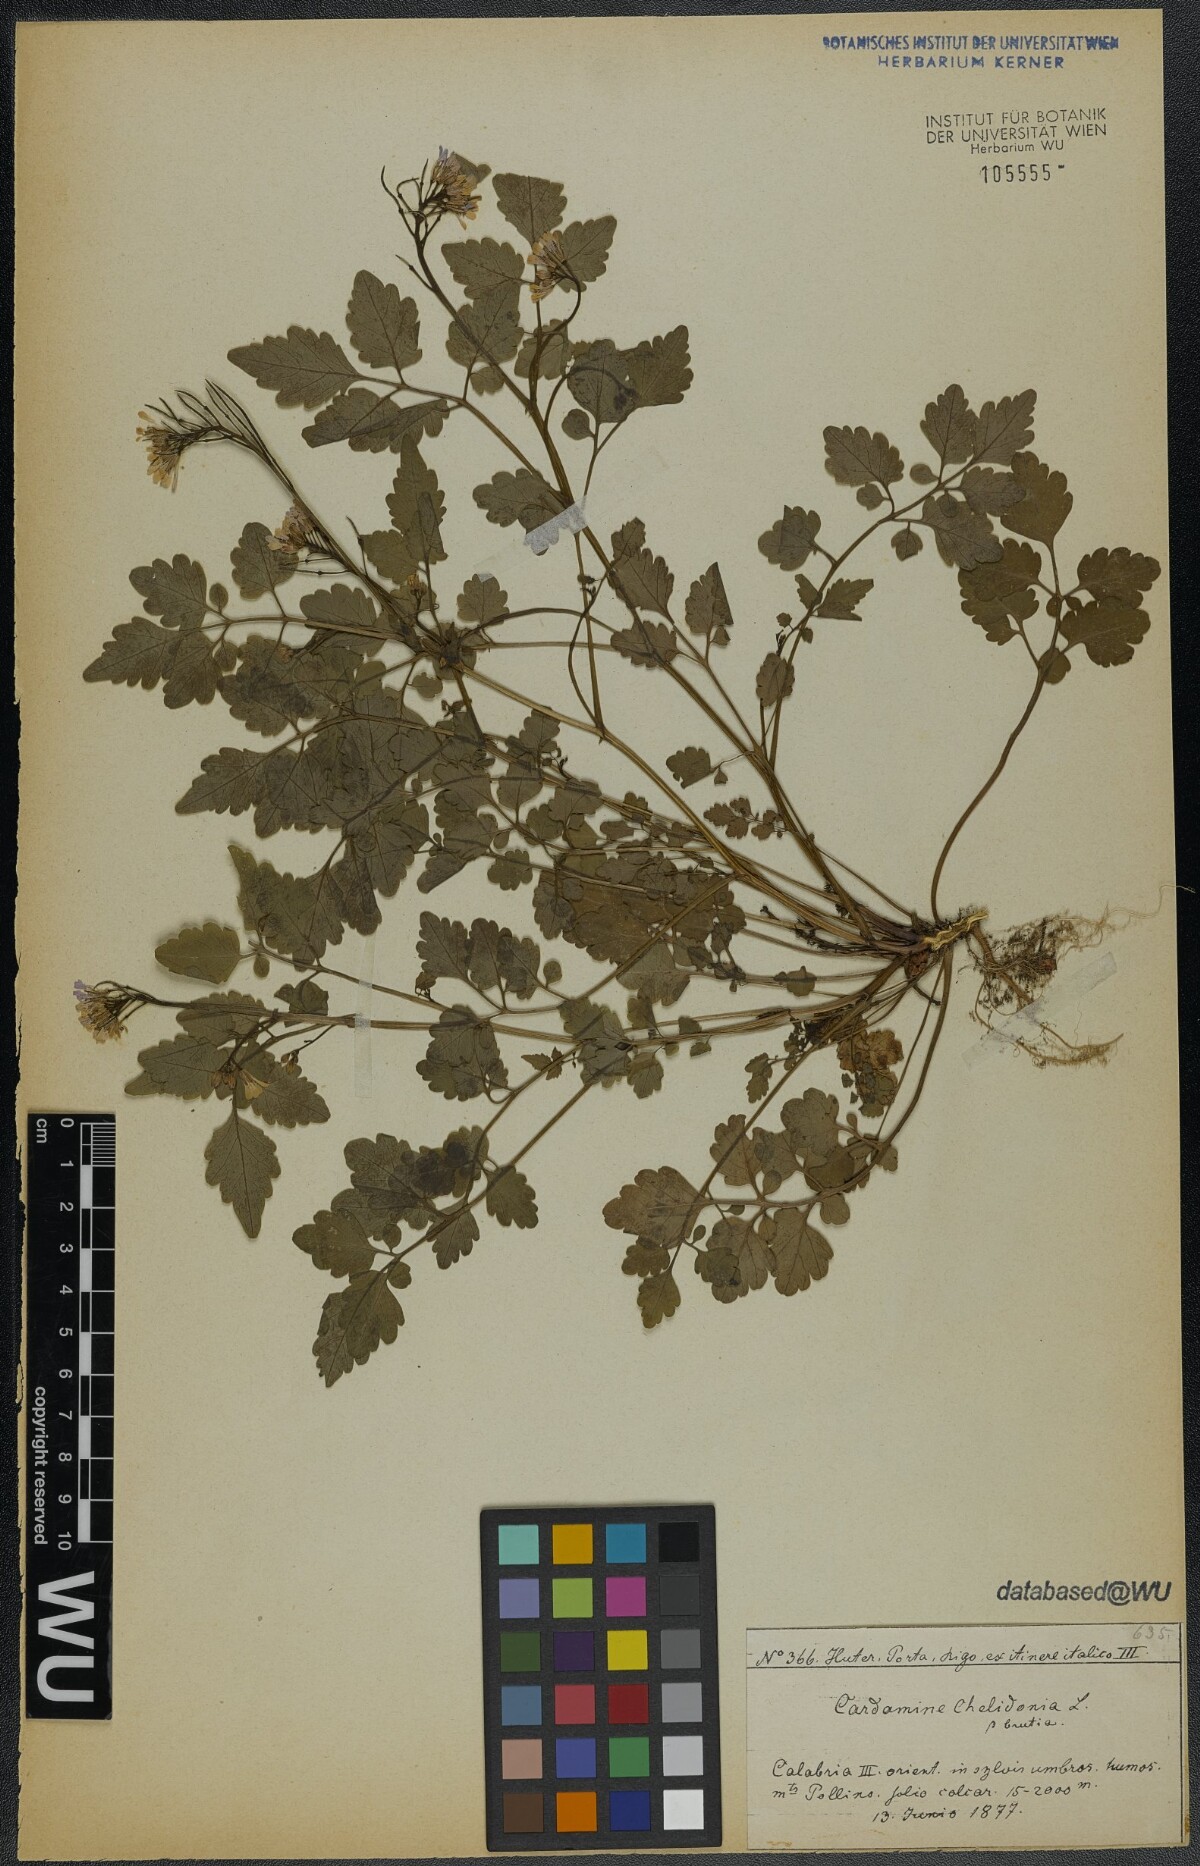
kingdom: Plantae
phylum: Tracheophyta
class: Magnoliopsida
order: Brassicales
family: Brassicaceae
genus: Cardamine
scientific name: Cardamine chelidonia
